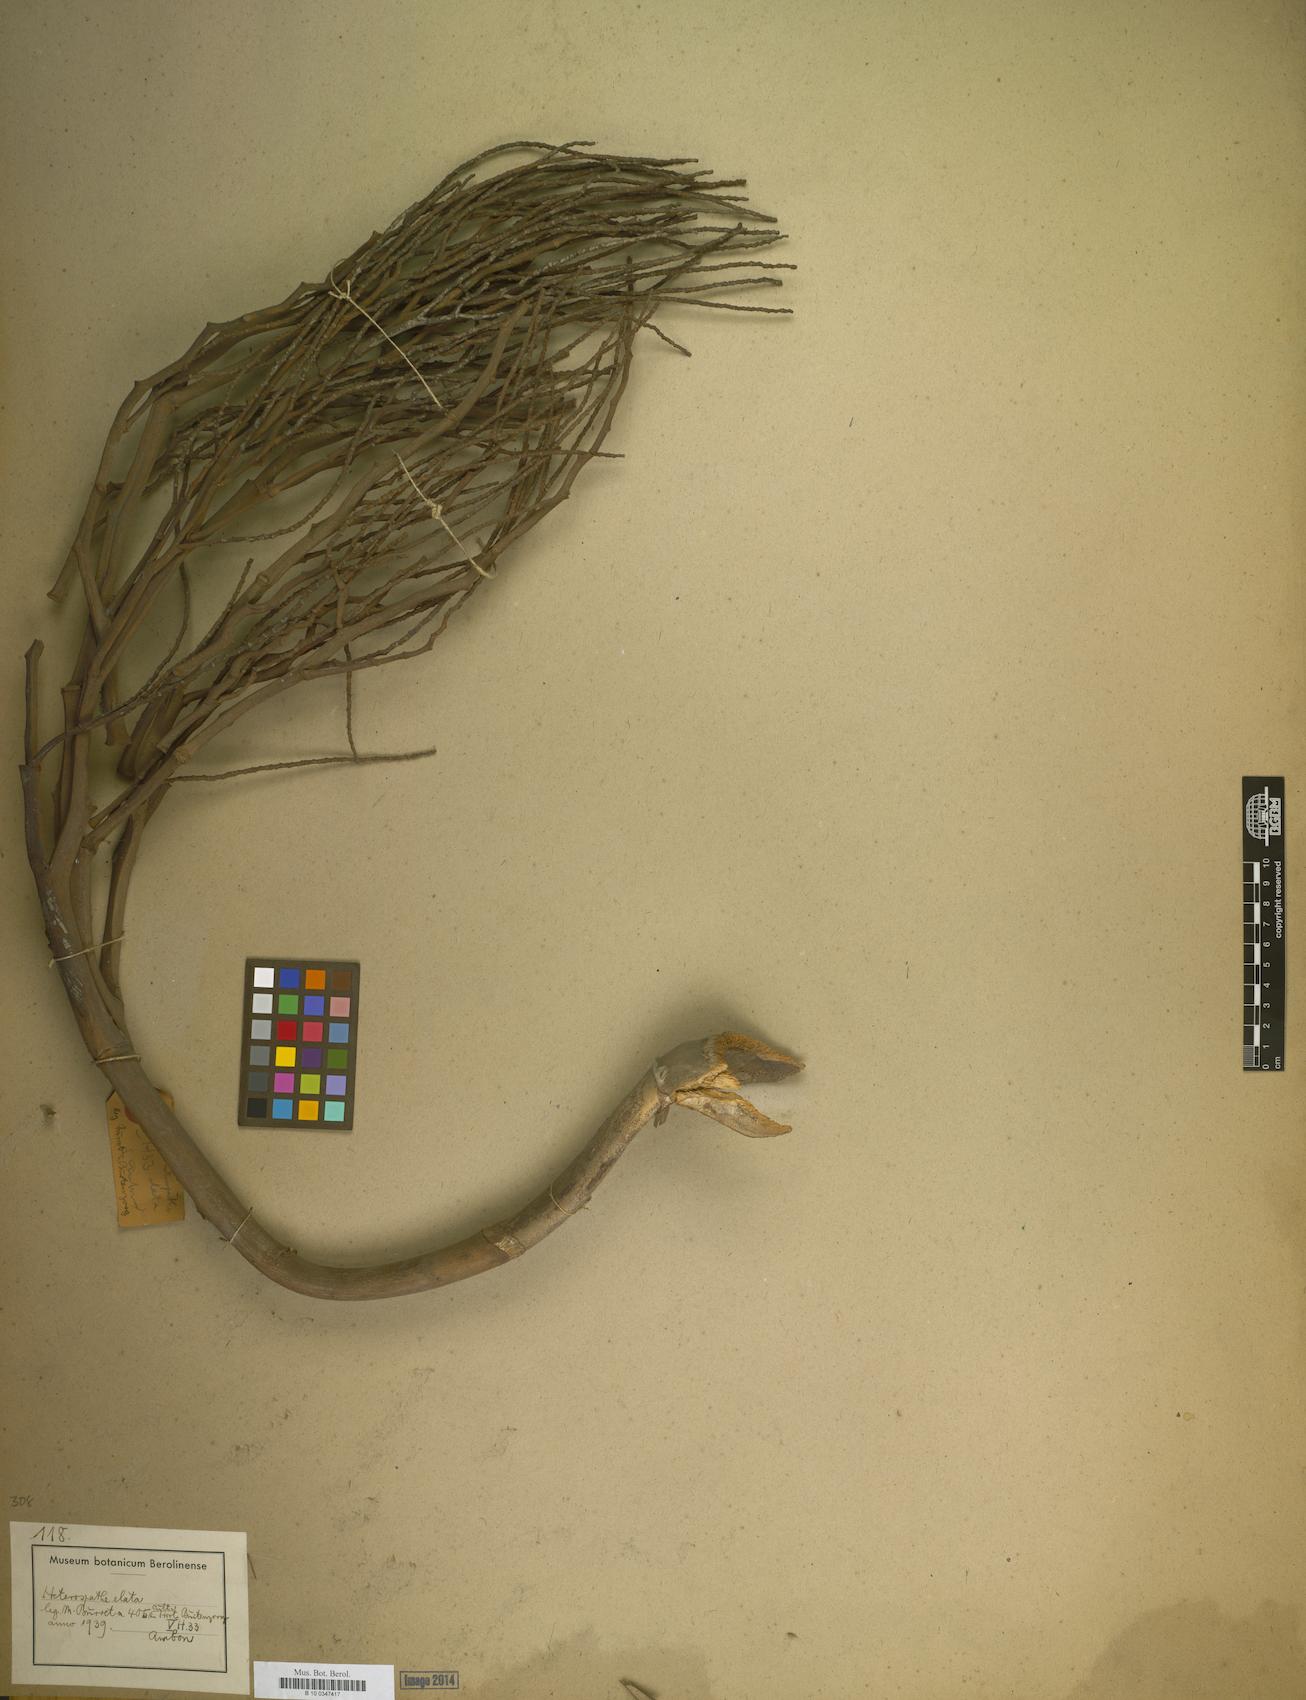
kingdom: Plantae
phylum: Tracheophyta
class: Liliopsida
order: Arecales
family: Arecaceae
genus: Heterospathe
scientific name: Heterospathe elata
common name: Sagisi palm
